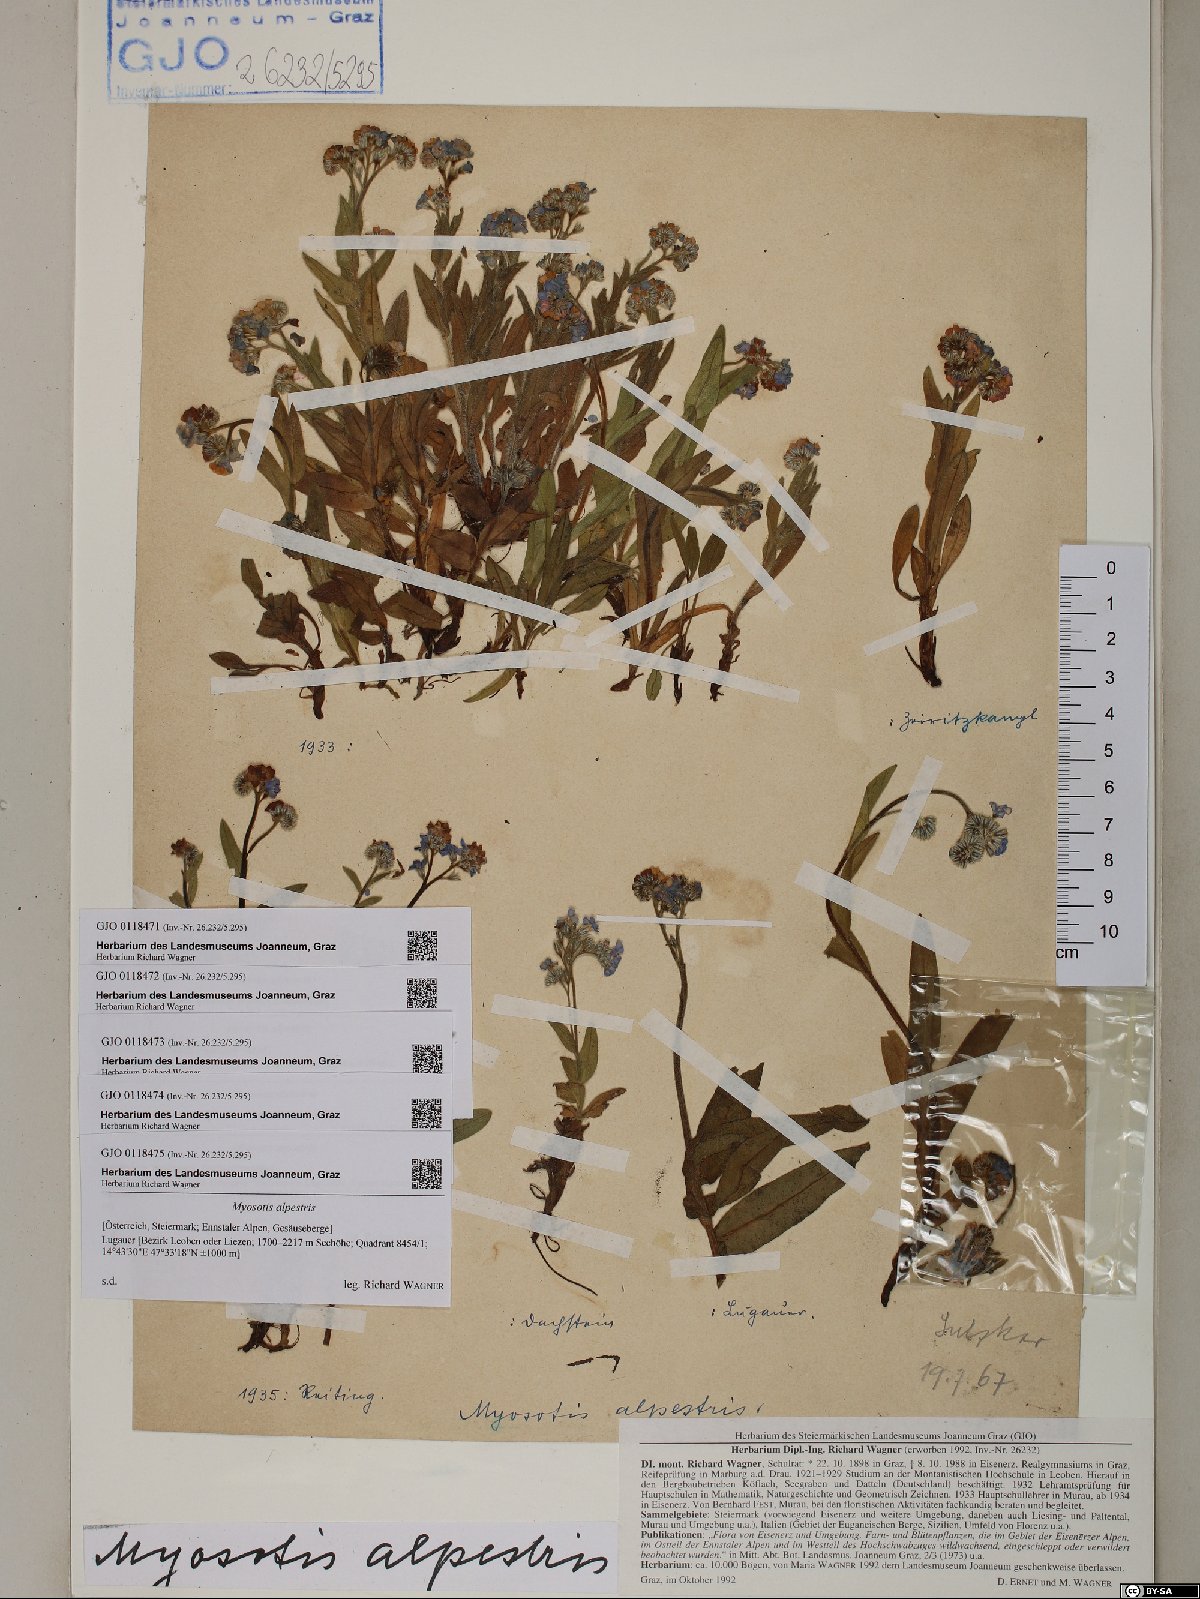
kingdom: Plantae
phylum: Tracheophyta
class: Magnoliopsida
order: Boraginales
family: Boraginaceae
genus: Myosotis
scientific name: Myosotis alpestris
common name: Alpine forget-me-not
